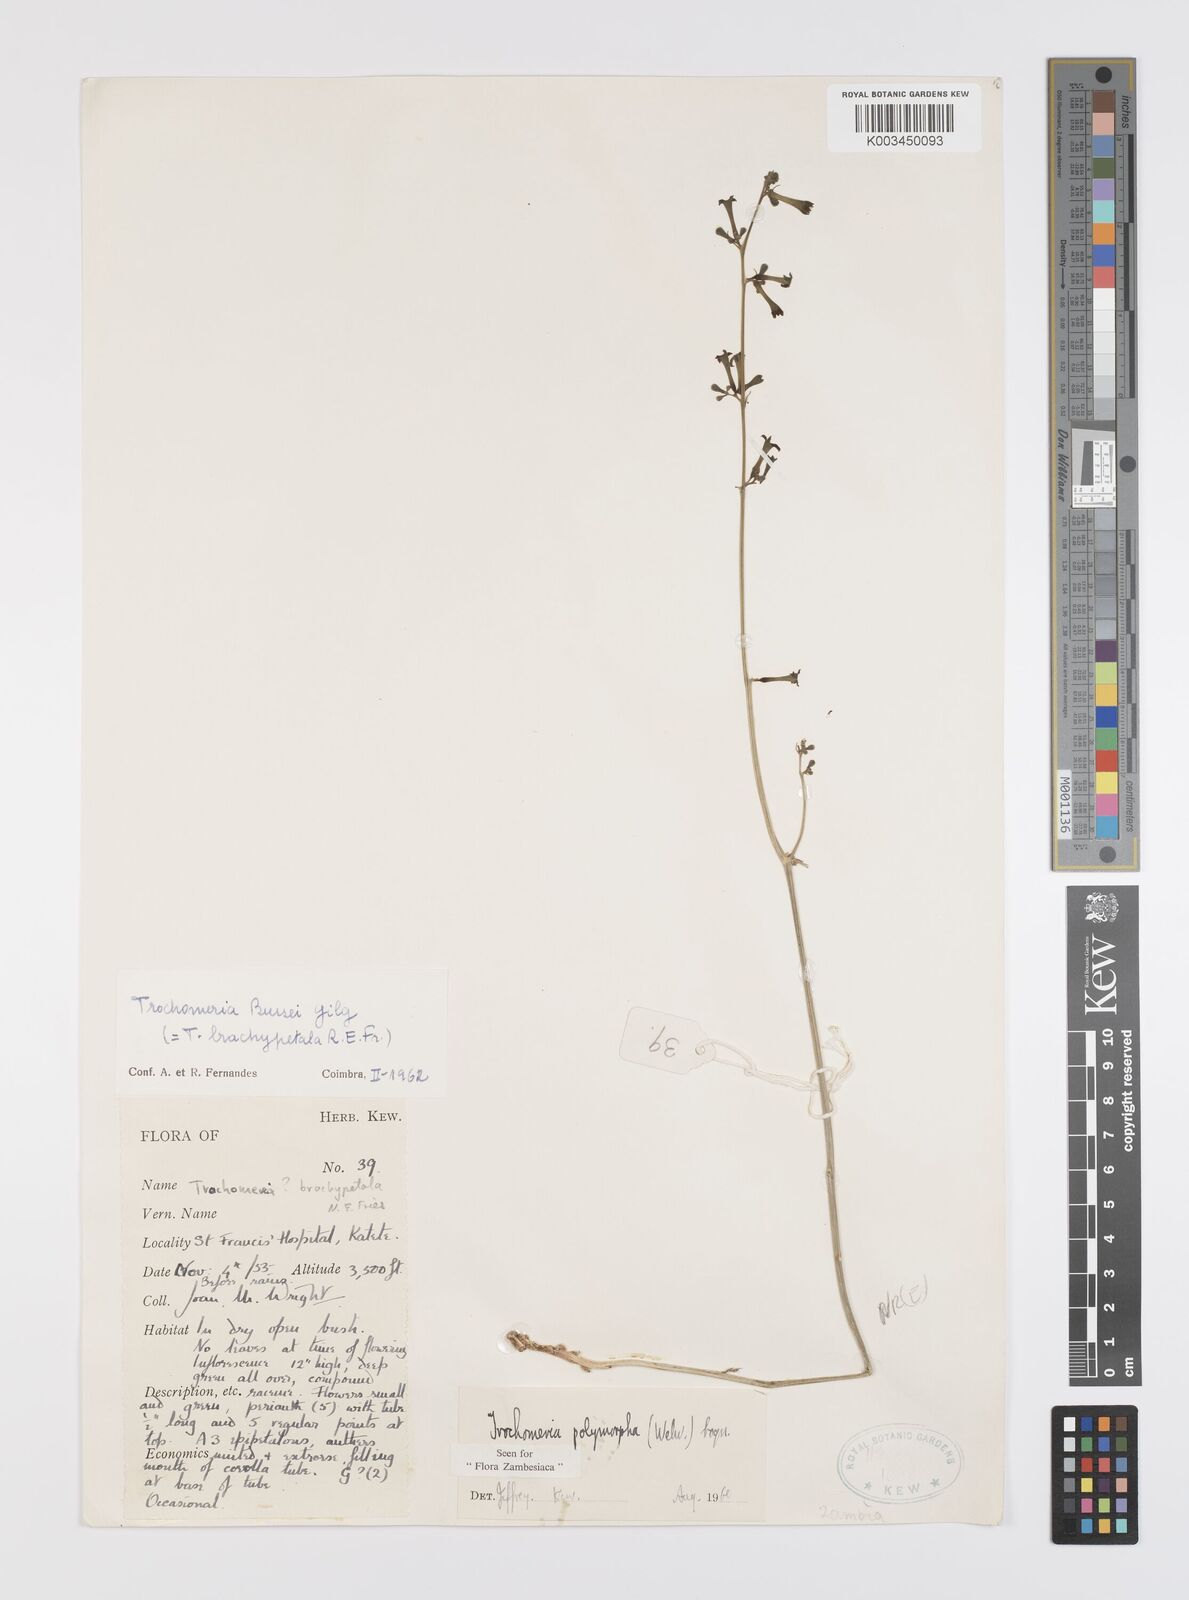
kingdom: Plantae
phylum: Tracheophyta
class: Magnoliopsida
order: Cucurbitales
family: Cucurbitaceae
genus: Trochomeria
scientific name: Trochomeria polymorpha
